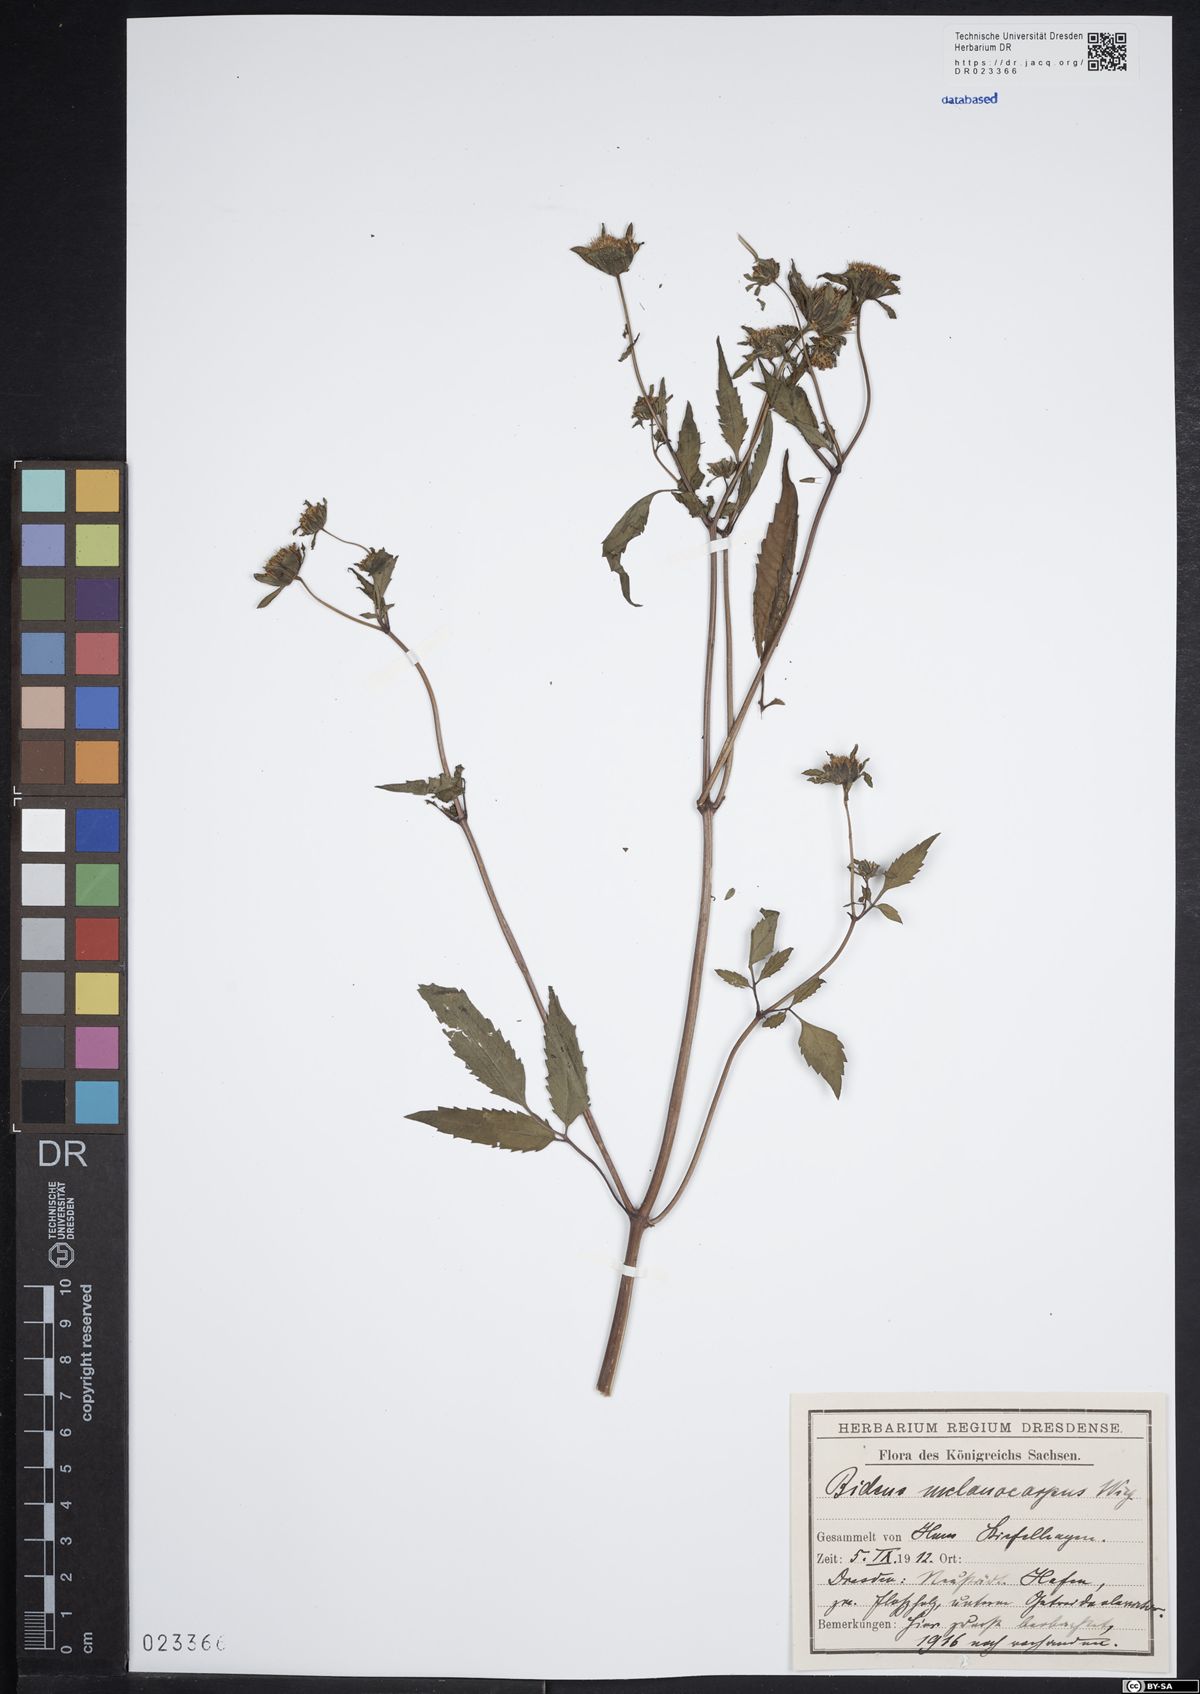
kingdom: Plantae
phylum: Tracheophyta
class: Magnoliopsida
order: Asterales
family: Asteraceae
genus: Bidens
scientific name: Bidens frondosa
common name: Beggarticks
